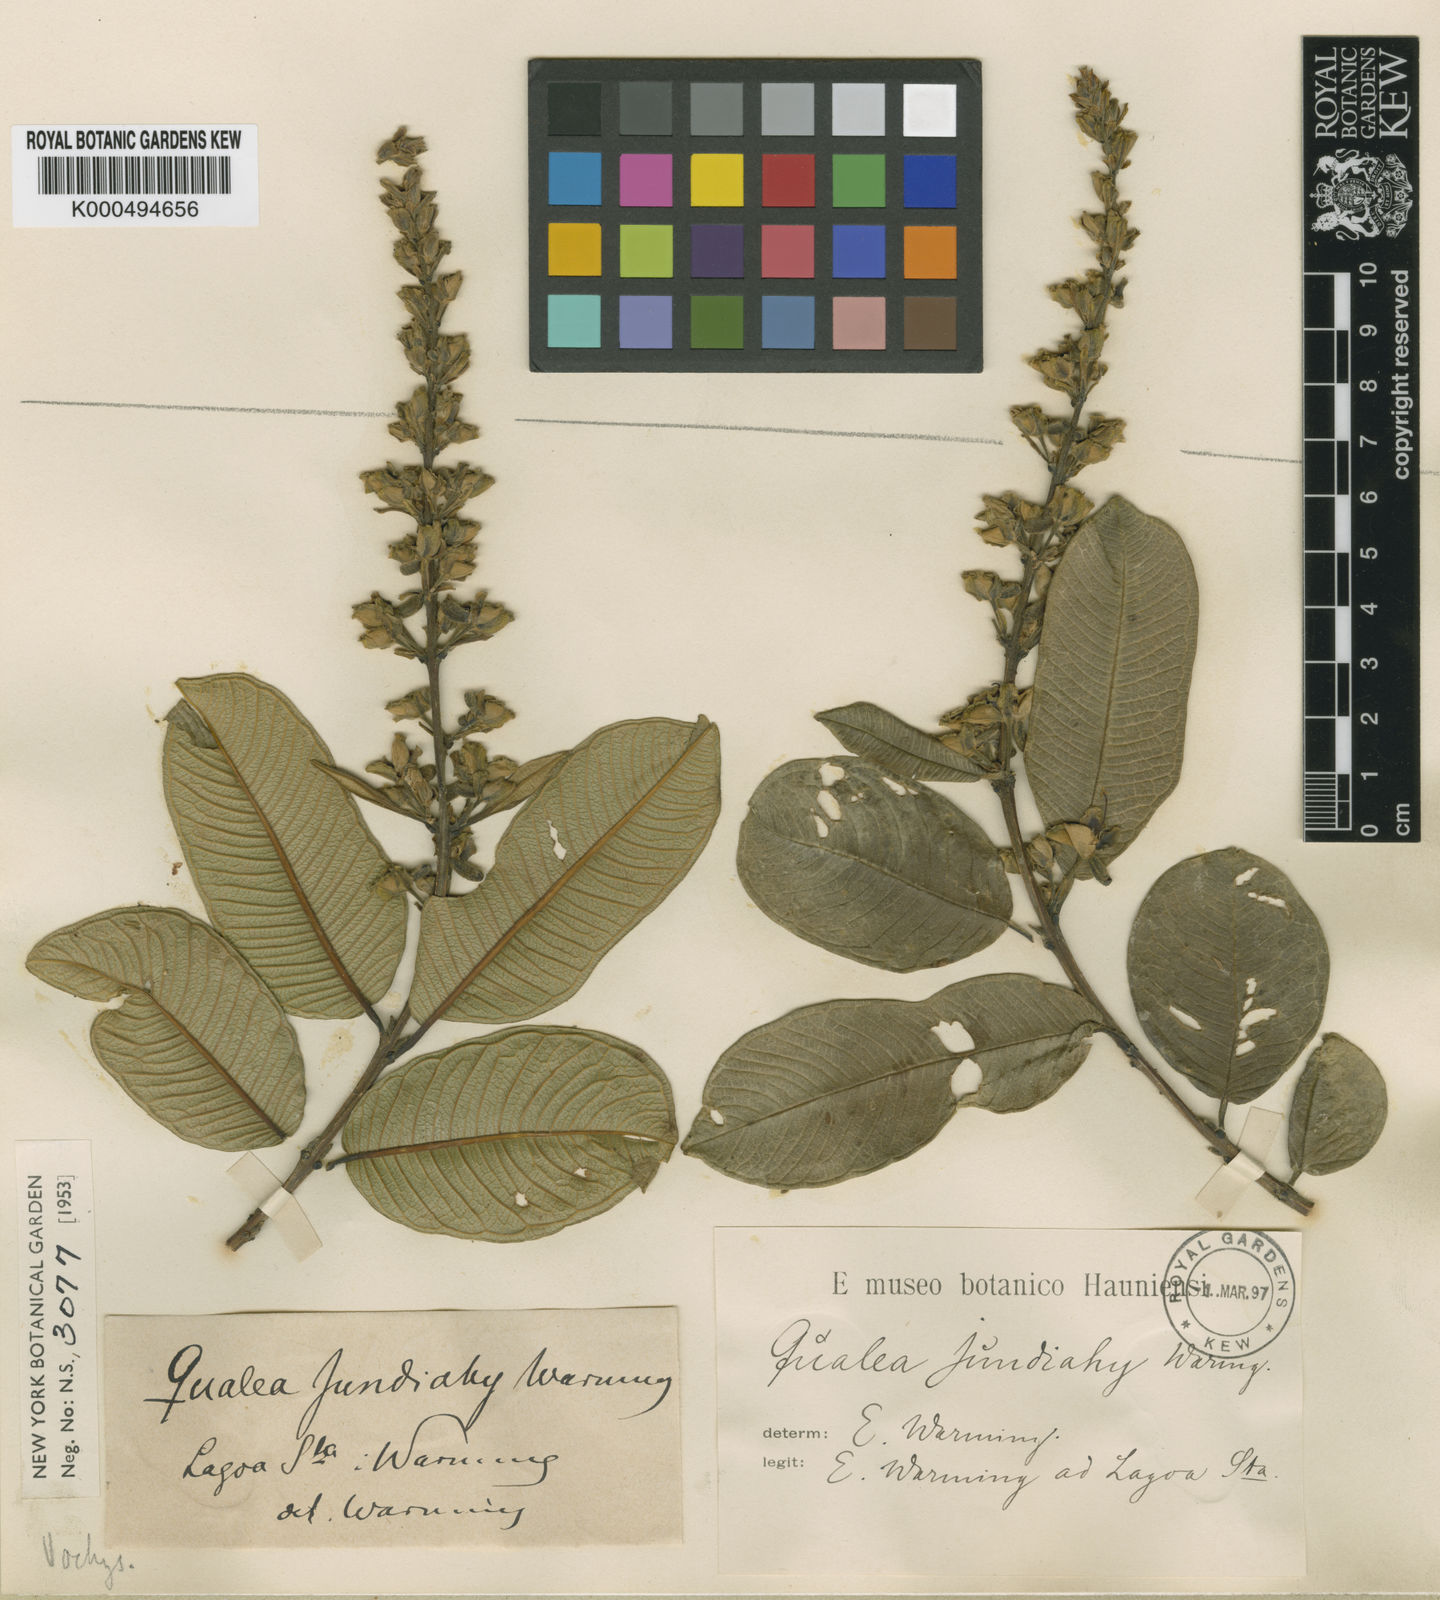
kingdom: Plantae
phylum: Tracheophyta
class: Magnoliopsida
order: Myrtales
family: Vochysiaceae
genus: Qualea
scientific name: Qualea multiflora
